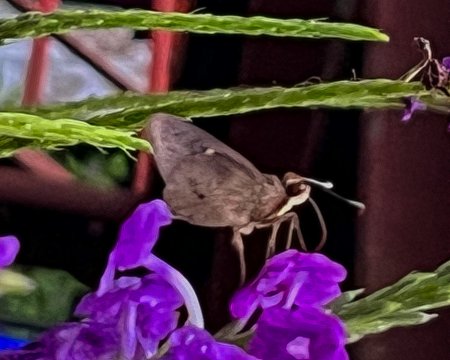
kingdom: Animalia
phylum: Arthropoda
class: Insecta
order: Lepidoptera
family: Hesperiidae
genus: Carystoides
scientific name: Carystoides lila
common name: Lila Ruby-eye
